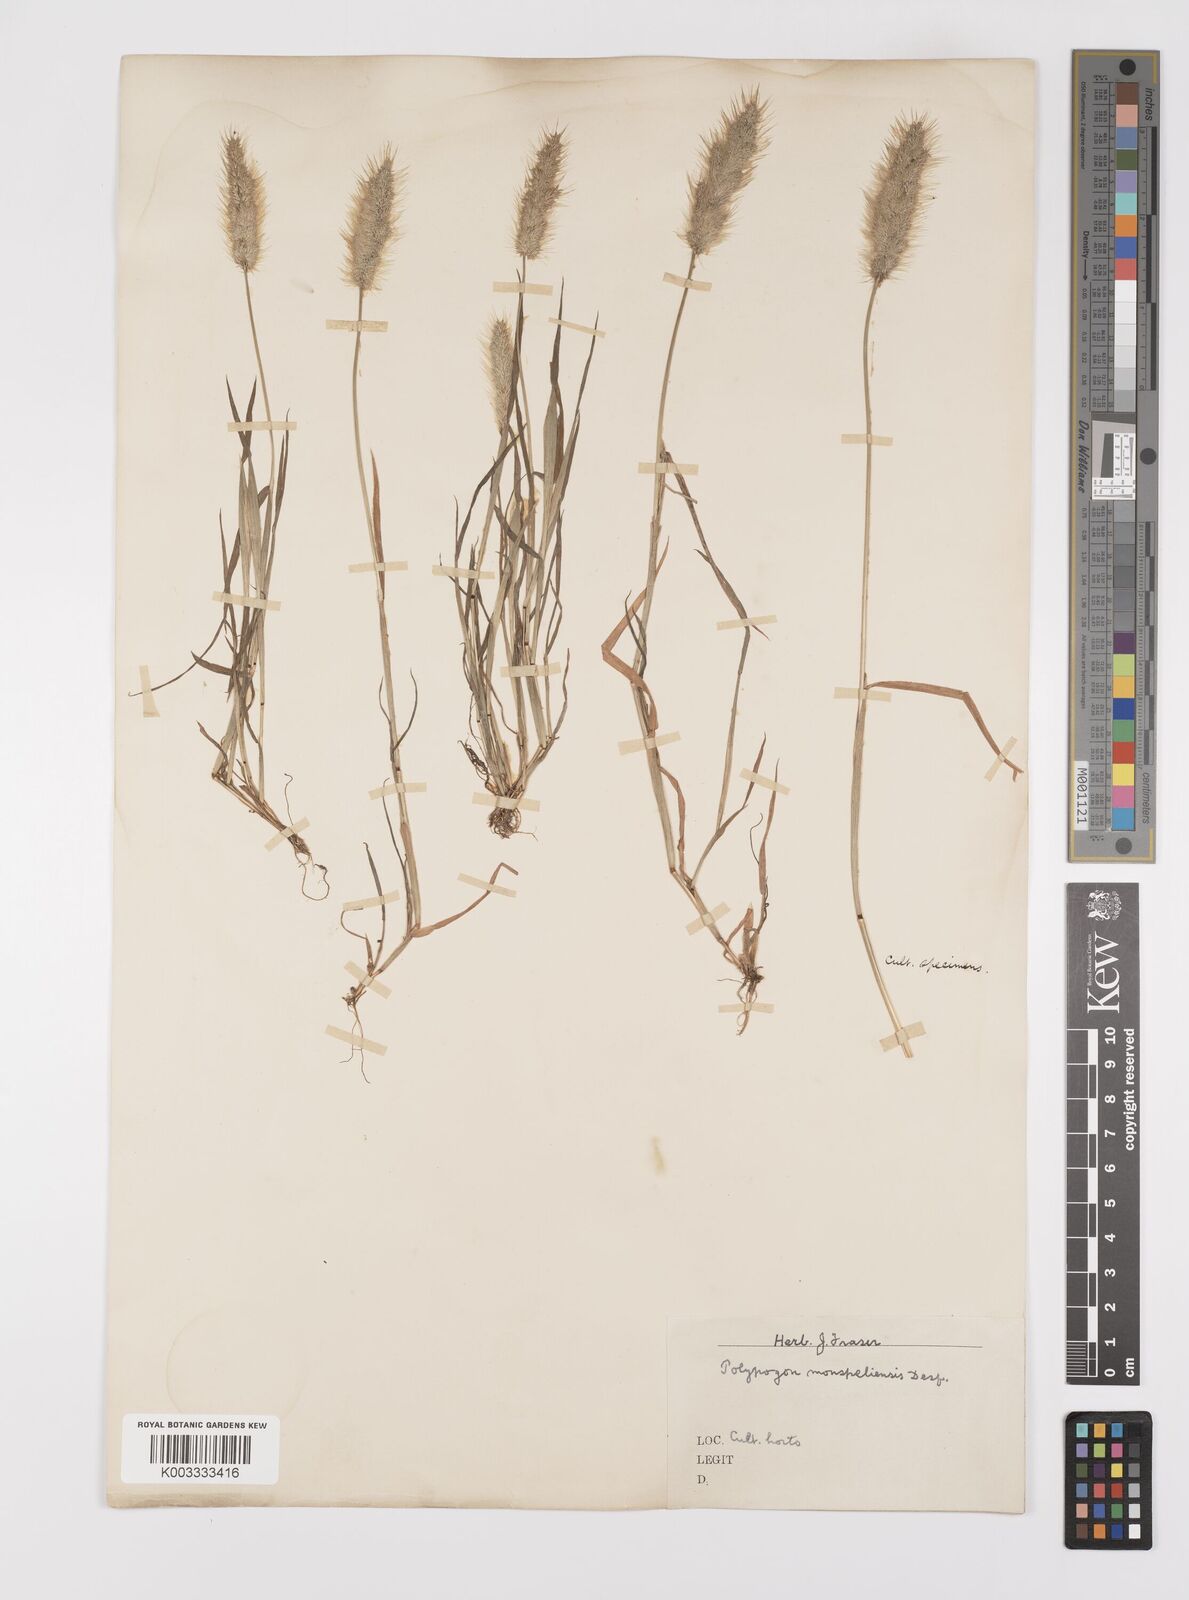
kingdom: Plantae
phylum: Tracheophyta
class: Liliopsida
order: Poales
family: Poaceae
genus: Polypogon
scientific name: Polypogon monspeliensis
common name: Annual rabbitsfoot grass
